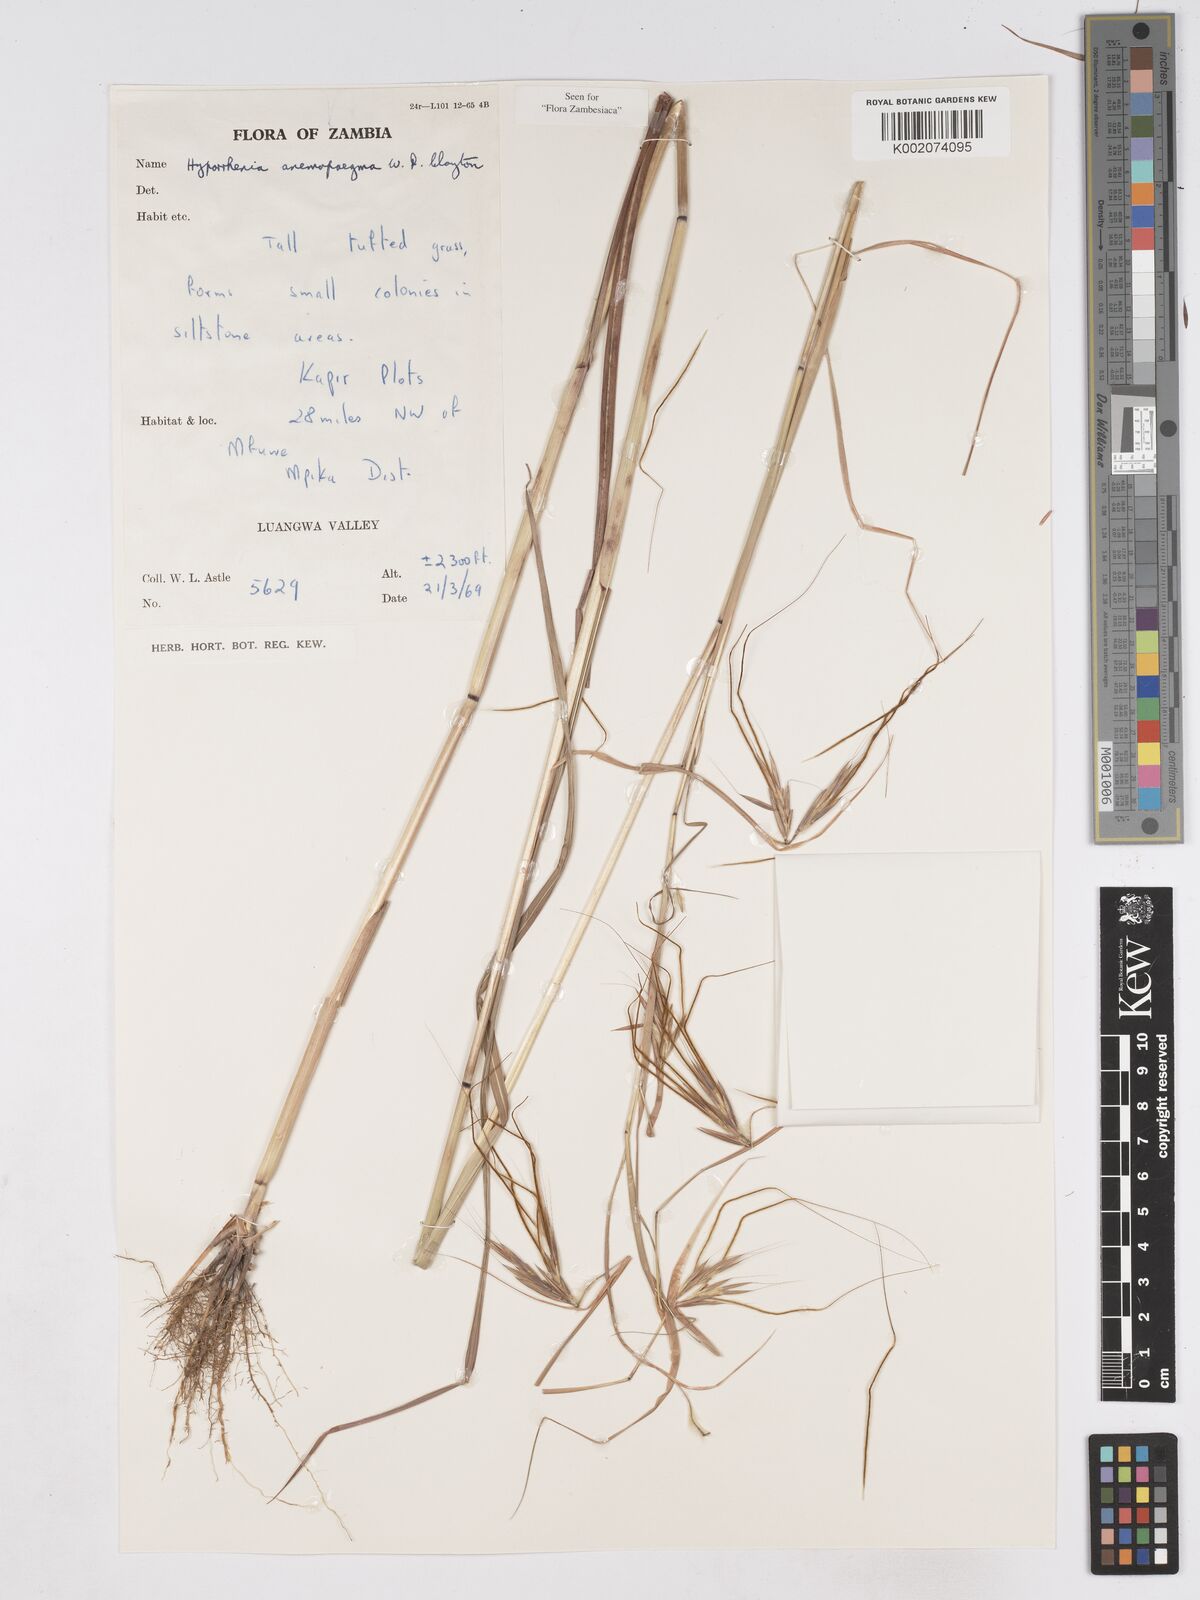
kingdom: Plantae
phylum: Tracheophyta
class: Liliopsida
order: Poales
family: Poaceae
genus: Hyparrhenia
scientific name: Hyparrhenia anemopaegma
